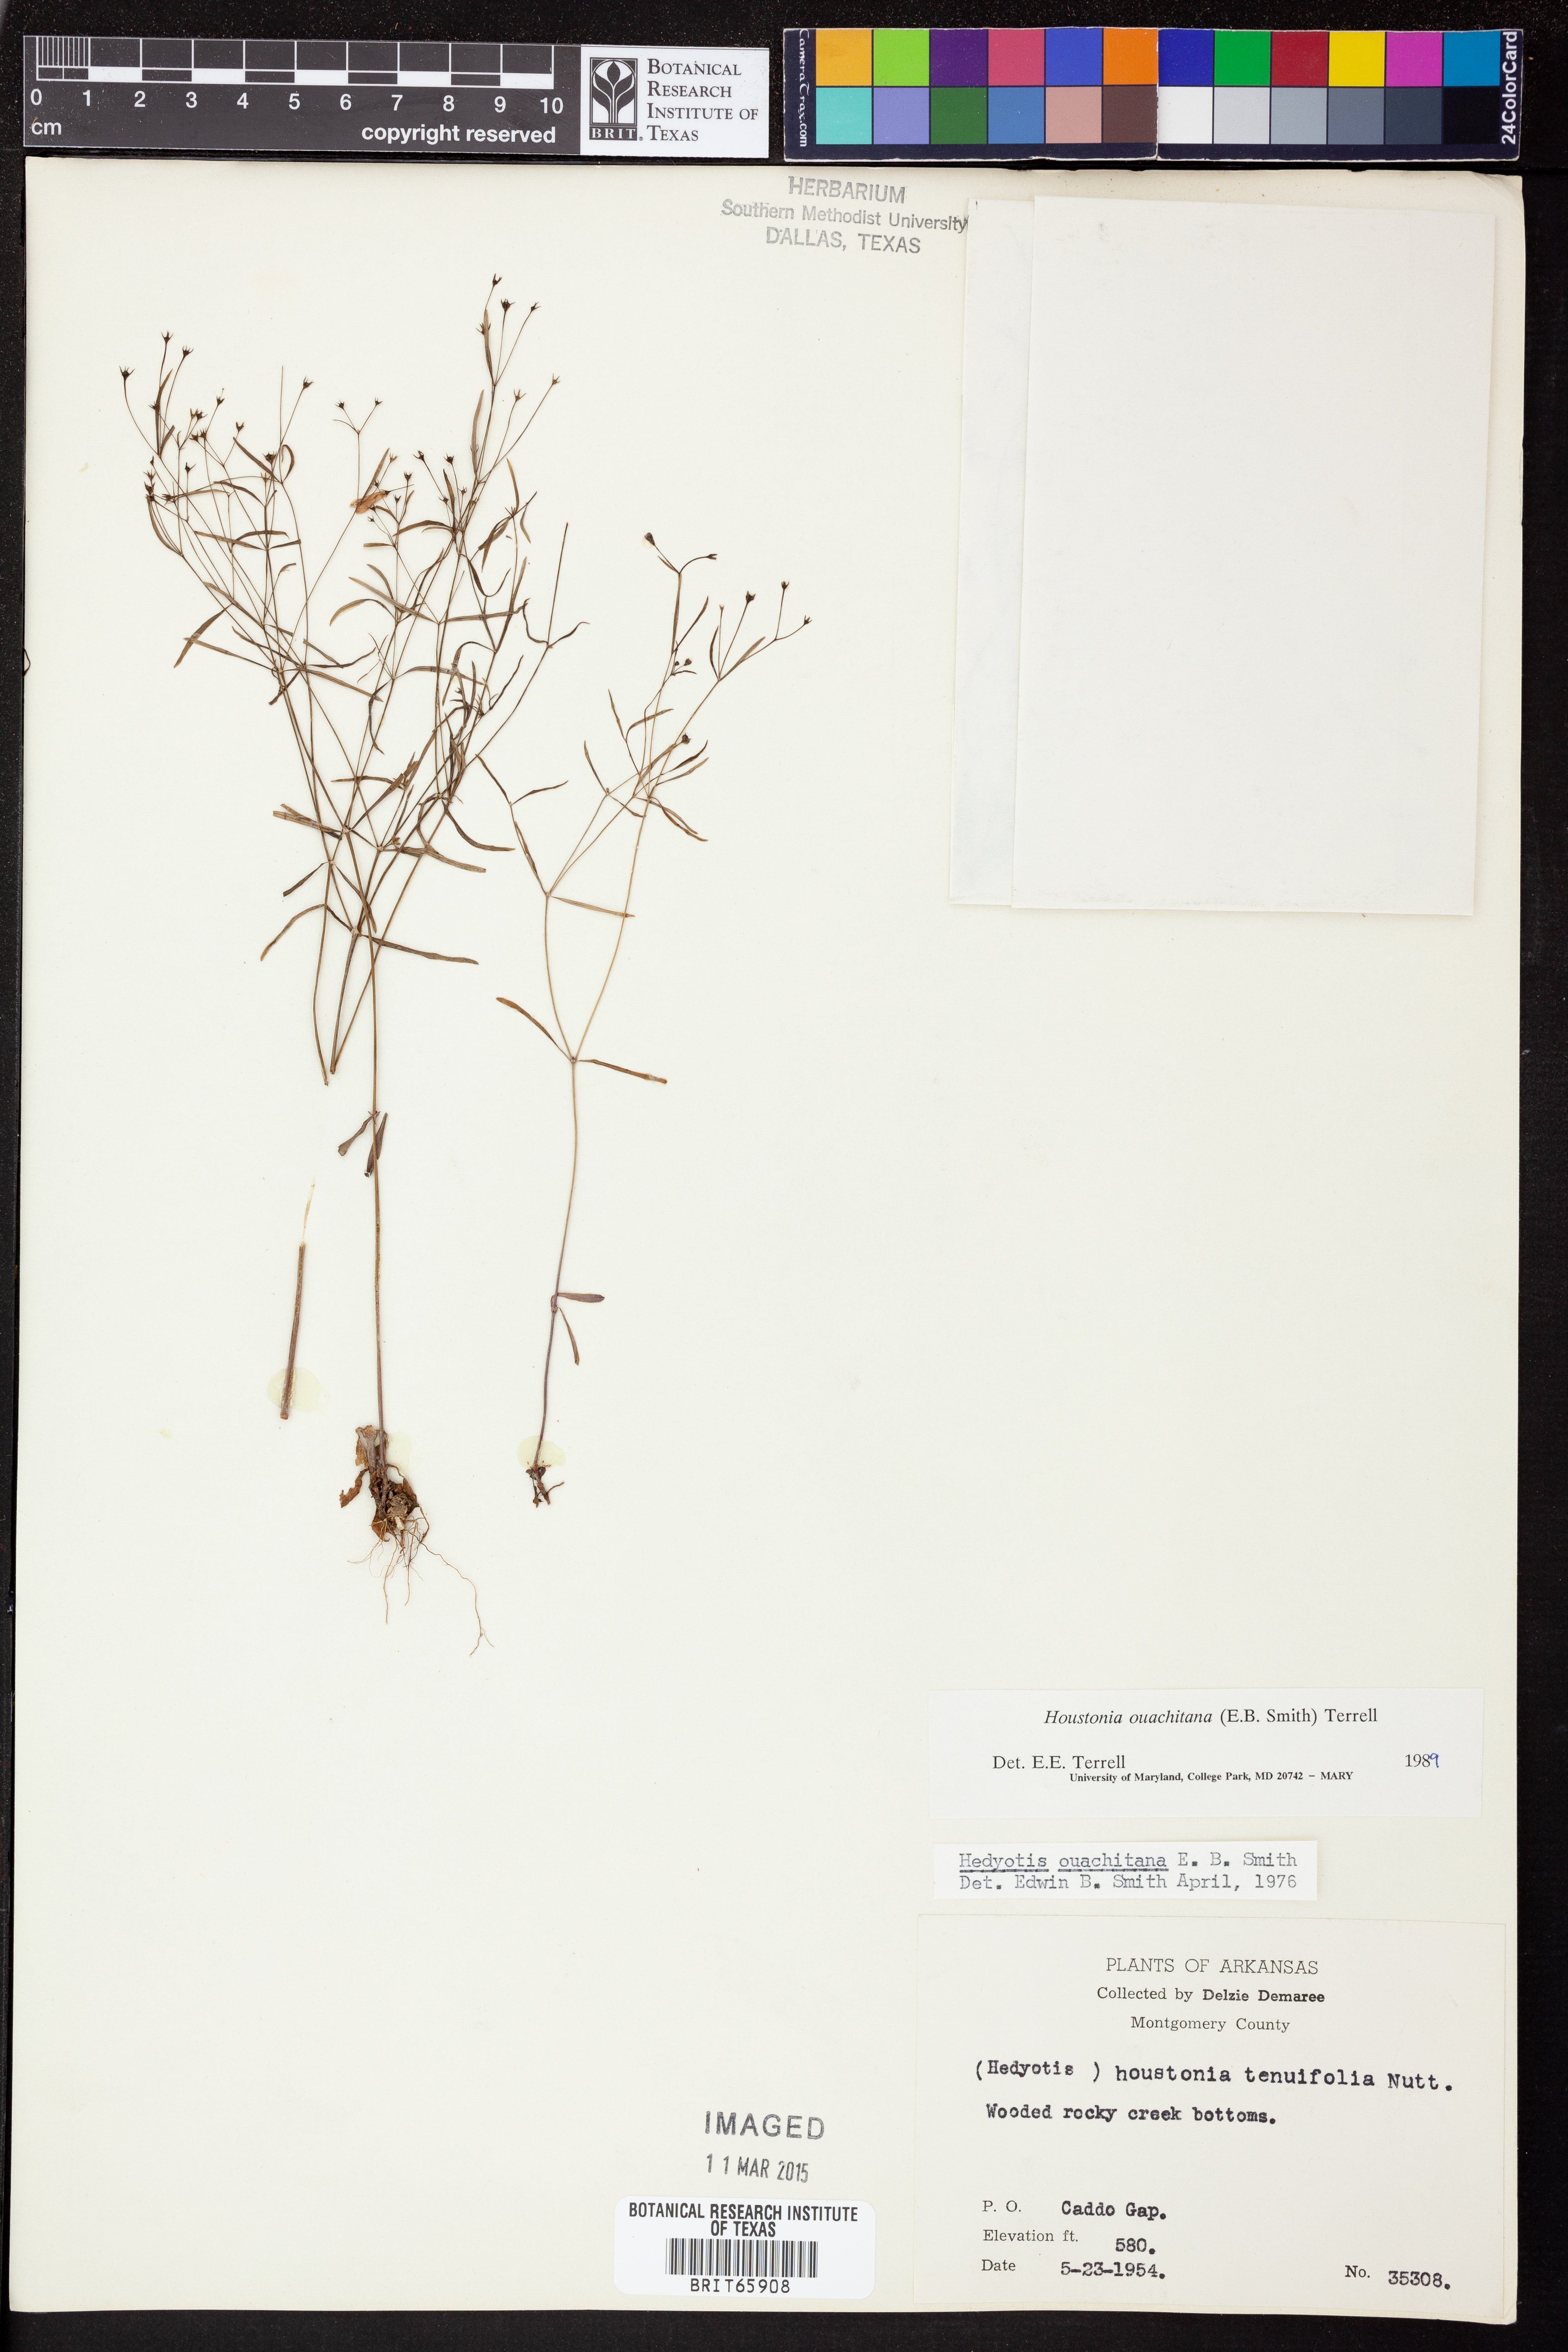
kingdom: Plantae
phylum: Tracheophyta
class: Magnoliopsida
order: Gentianales
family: Rubiaceae
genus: Houstonia
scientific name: Houstonia ouachitana
